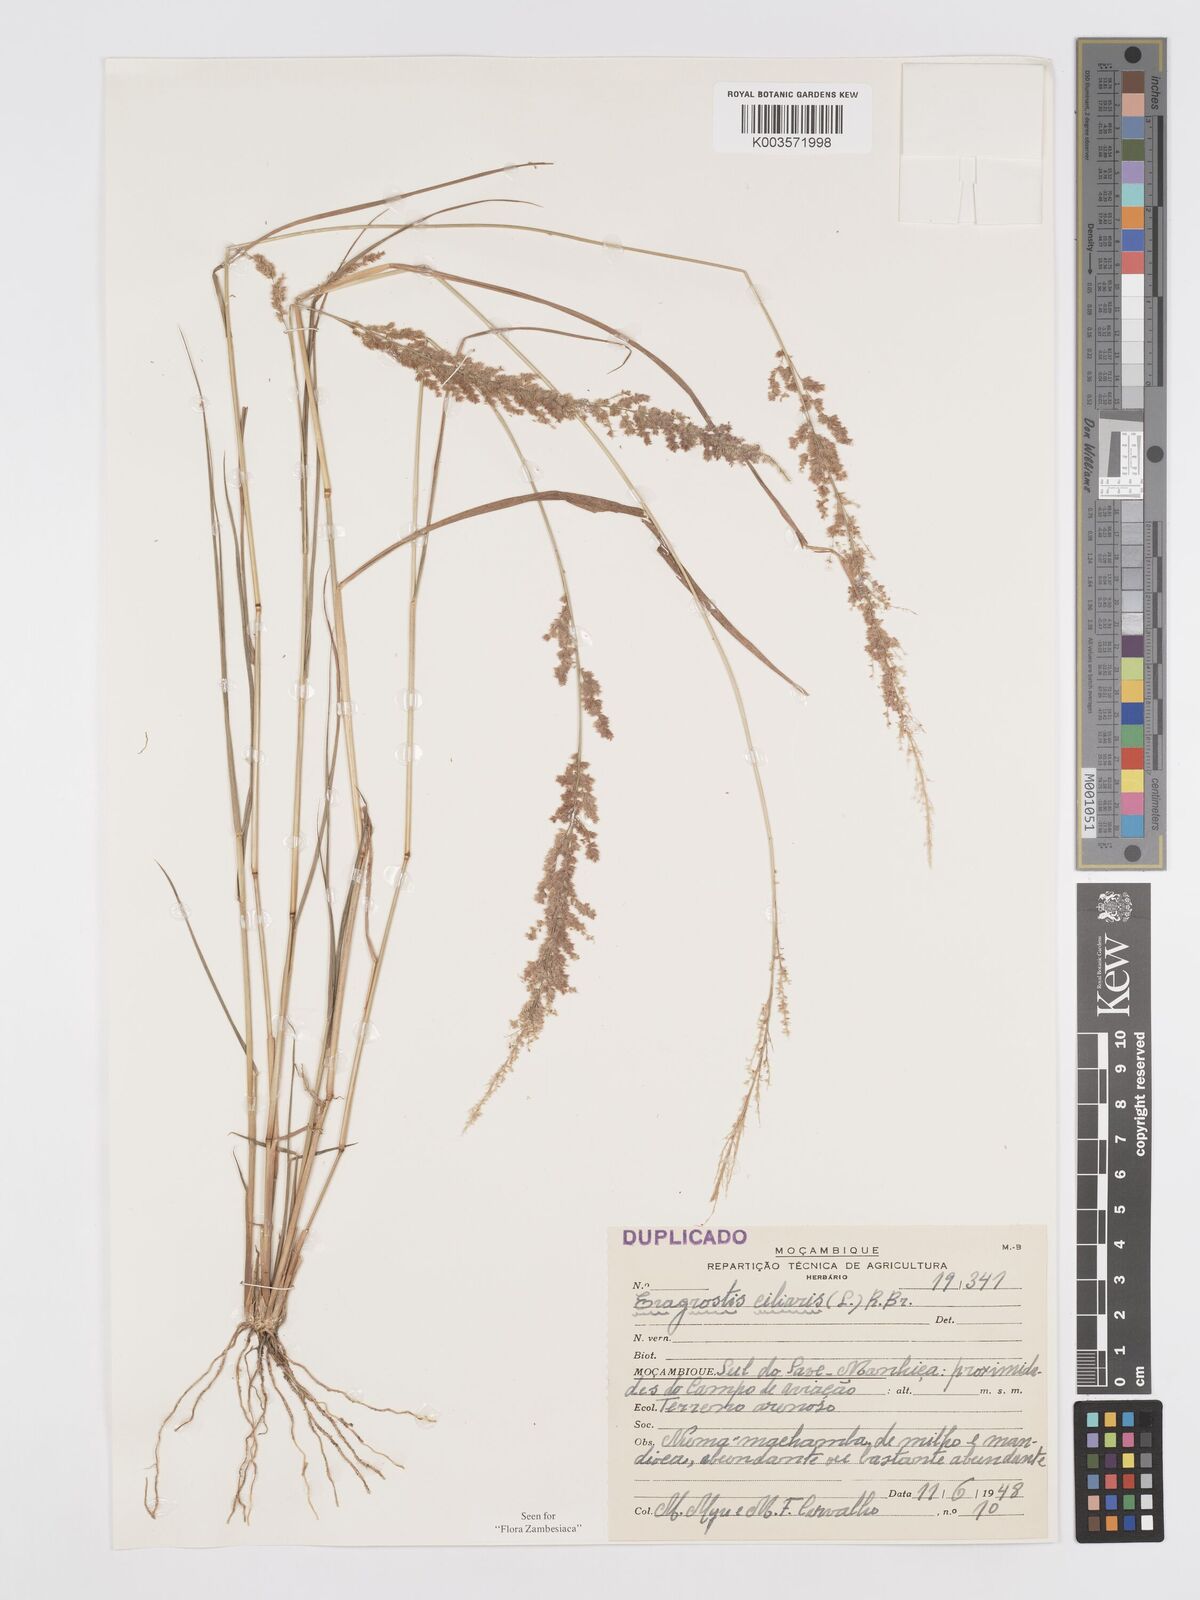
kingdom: Plantae
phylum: Tracheophyta
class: Liliopsida
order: Poales
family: Poaceae
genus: Eragrostis
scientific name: Eragrostis ciliaris
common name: Gophertail lovegrass
